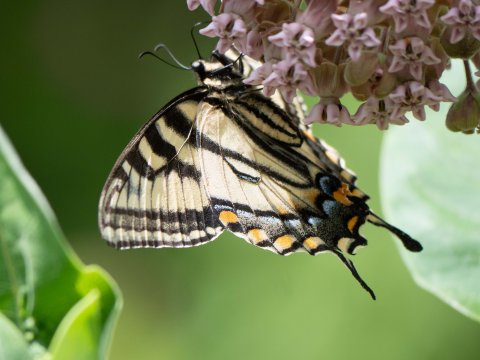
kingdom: Animalia
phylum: Arthropoda
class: Insecta
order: Lepidoptera
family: Papilionidae
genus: Pterourus
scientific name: Pterourus canadensis
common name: Canadian Tiger Swallowtail
